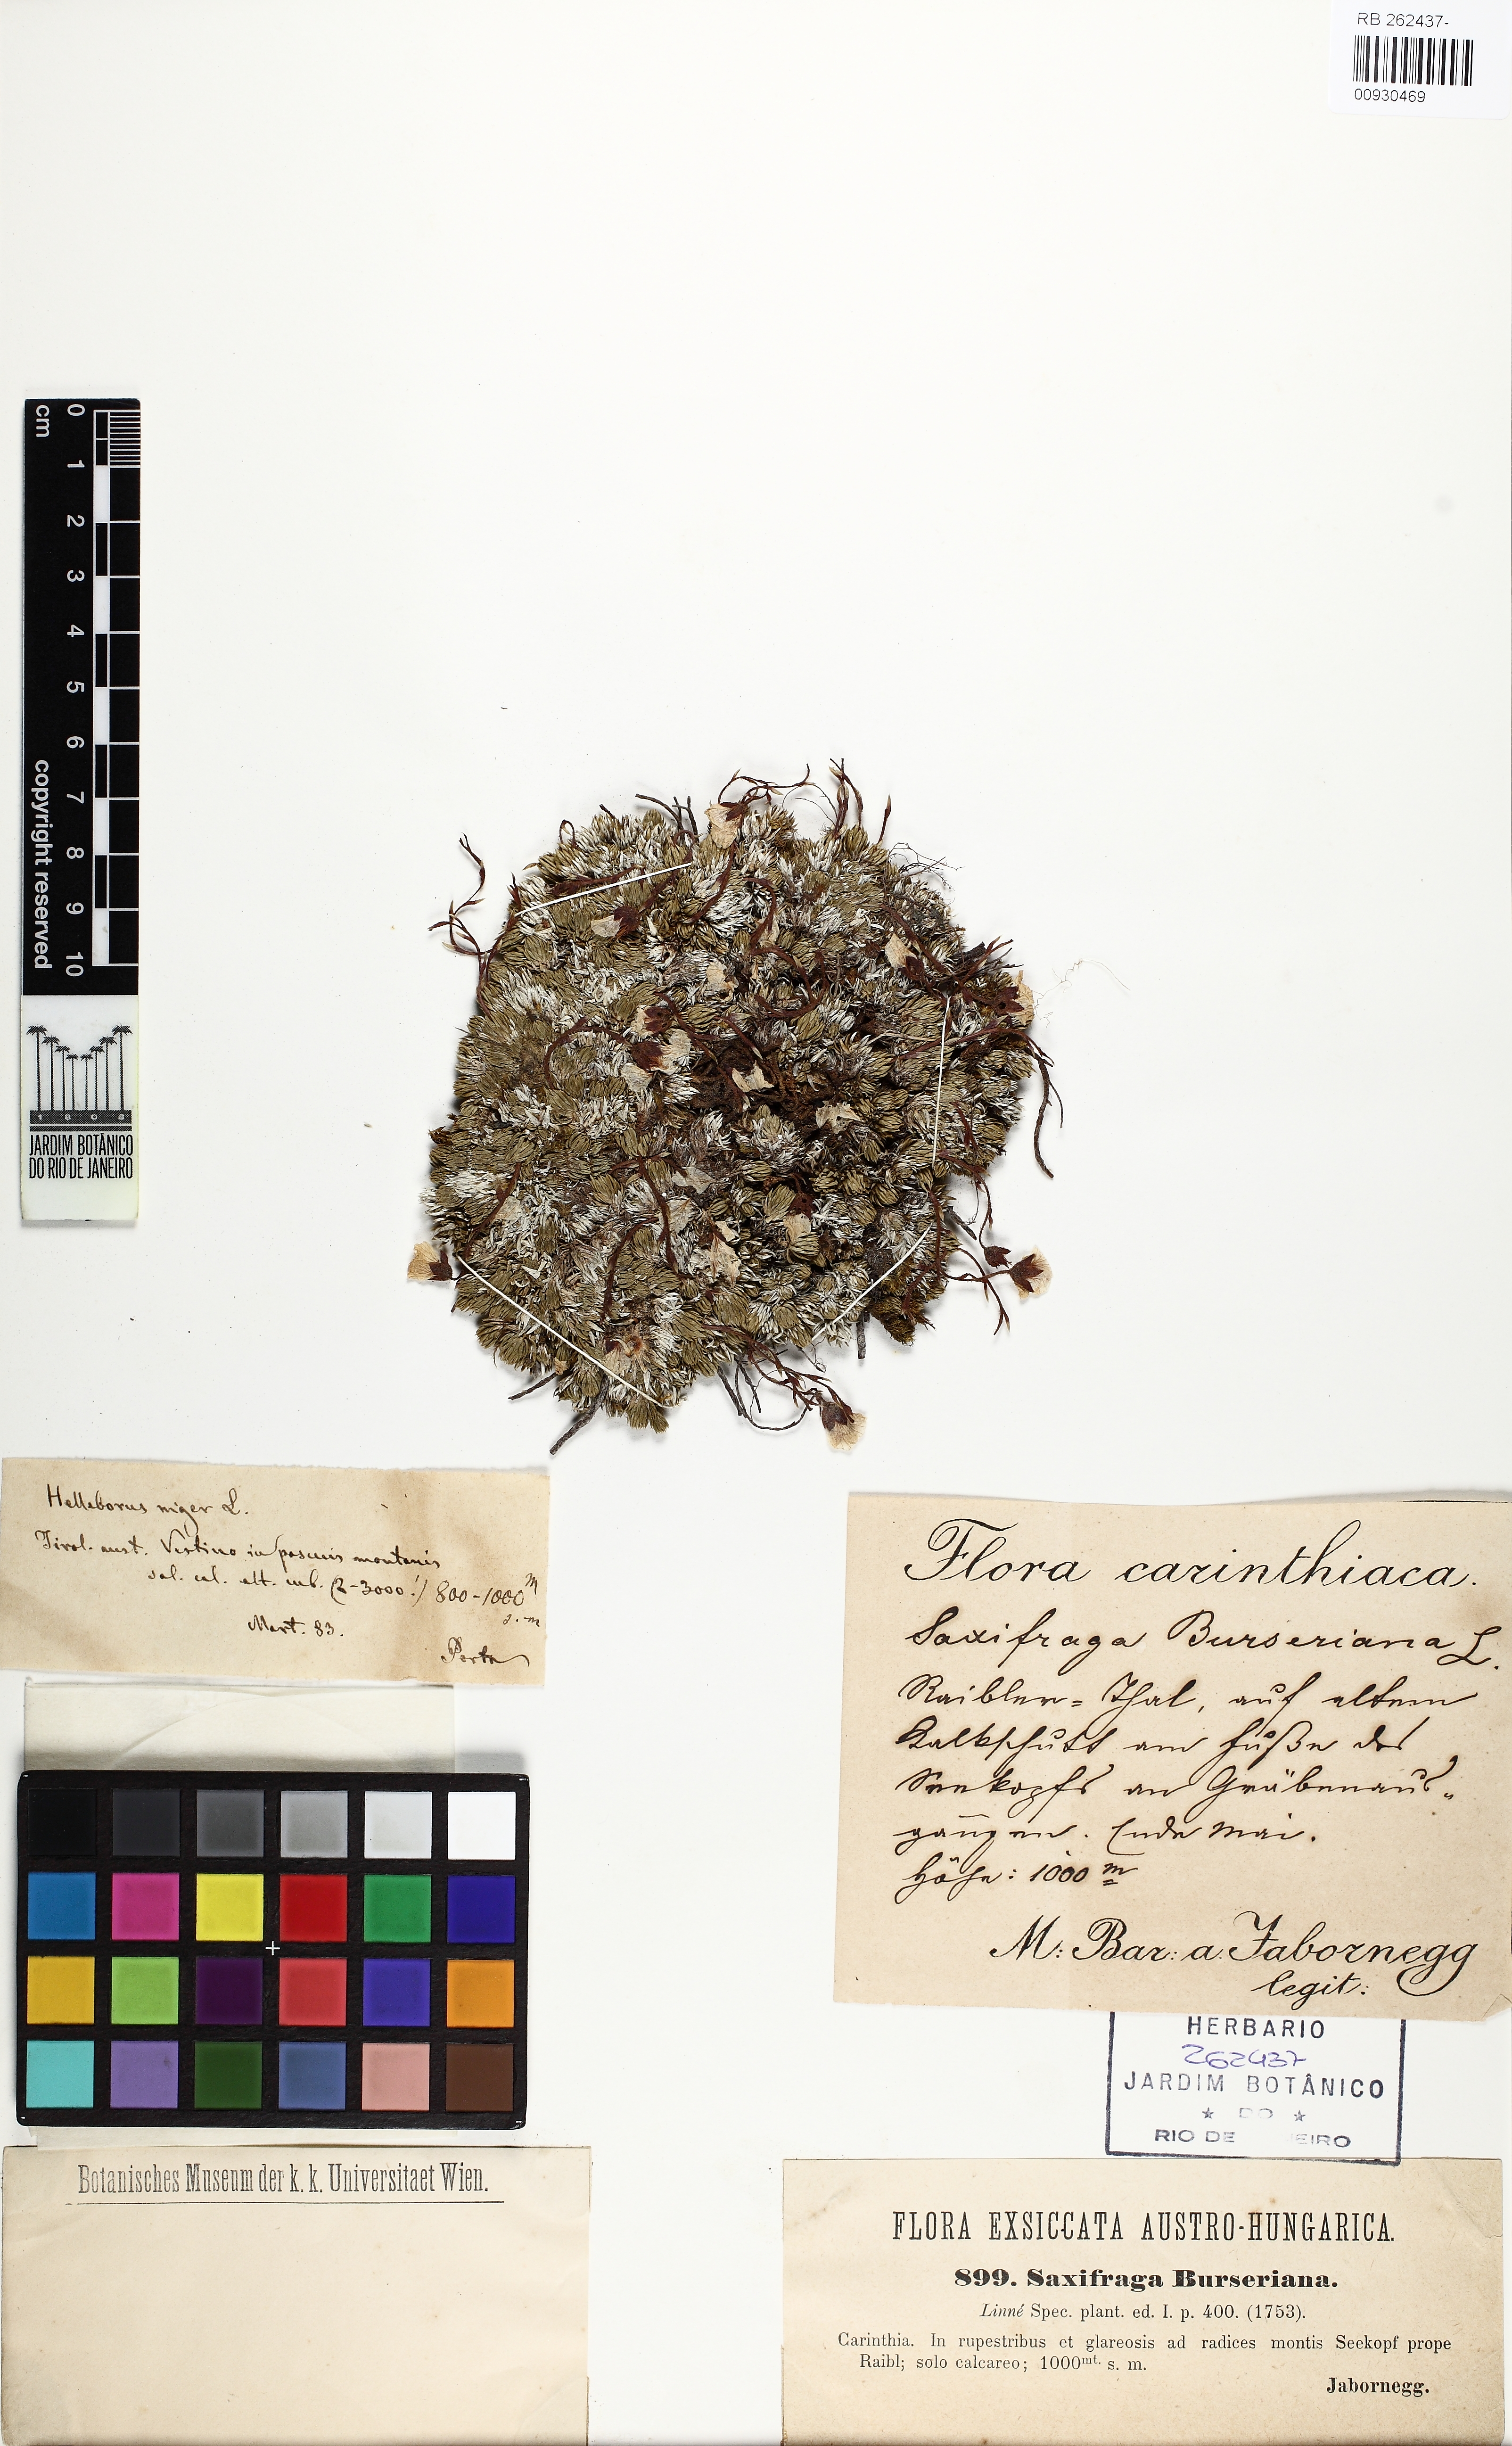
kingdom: Plantae
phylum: Tracheophyta
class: Magnoliopsida
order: Saxifragales
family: Saxifragaceae
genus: Saxifraga
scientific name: Saxifraga burseriana
